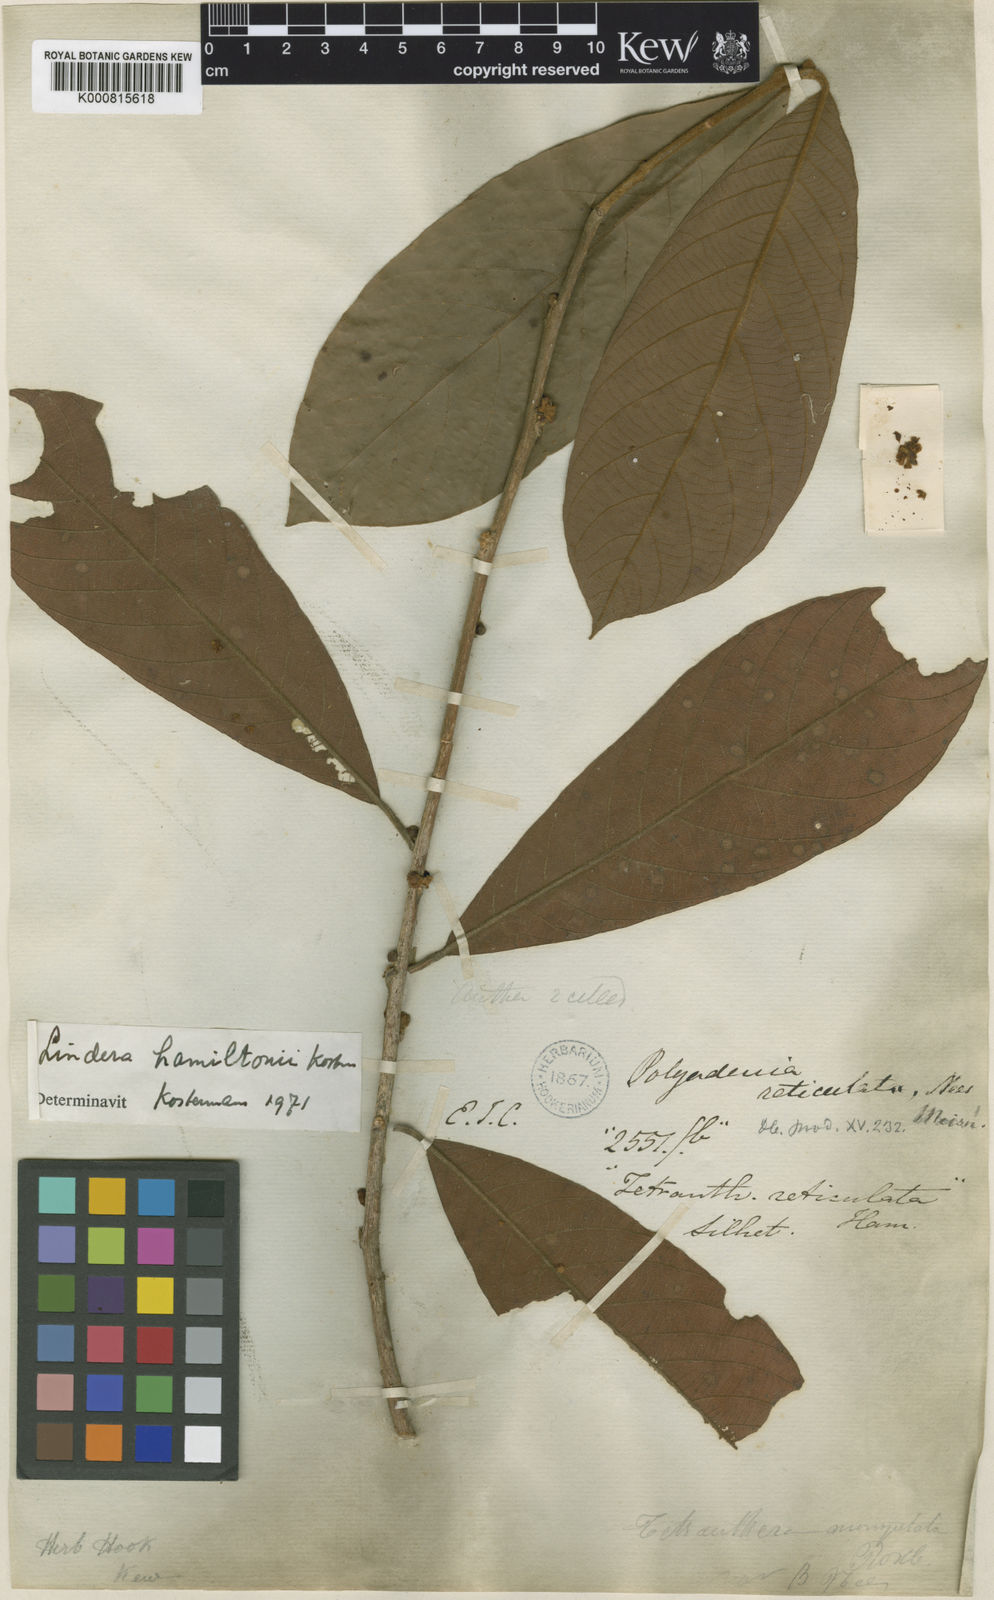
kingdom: Plantae
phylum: Tracheophyta
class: Magnoliopsida
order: Laurales
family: Lauraceae
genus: Lindera
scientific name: Lindera reticulata
